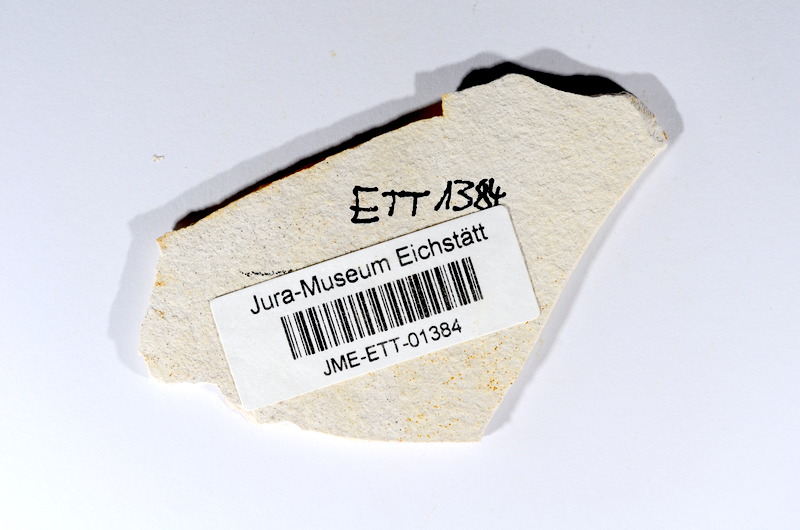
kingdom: Animalia
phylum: Chordata
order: Salmoniformes
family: Orthogonikleithridae
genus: Orthogonikleithrus
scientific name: Orthogonikleithrus hoelli
